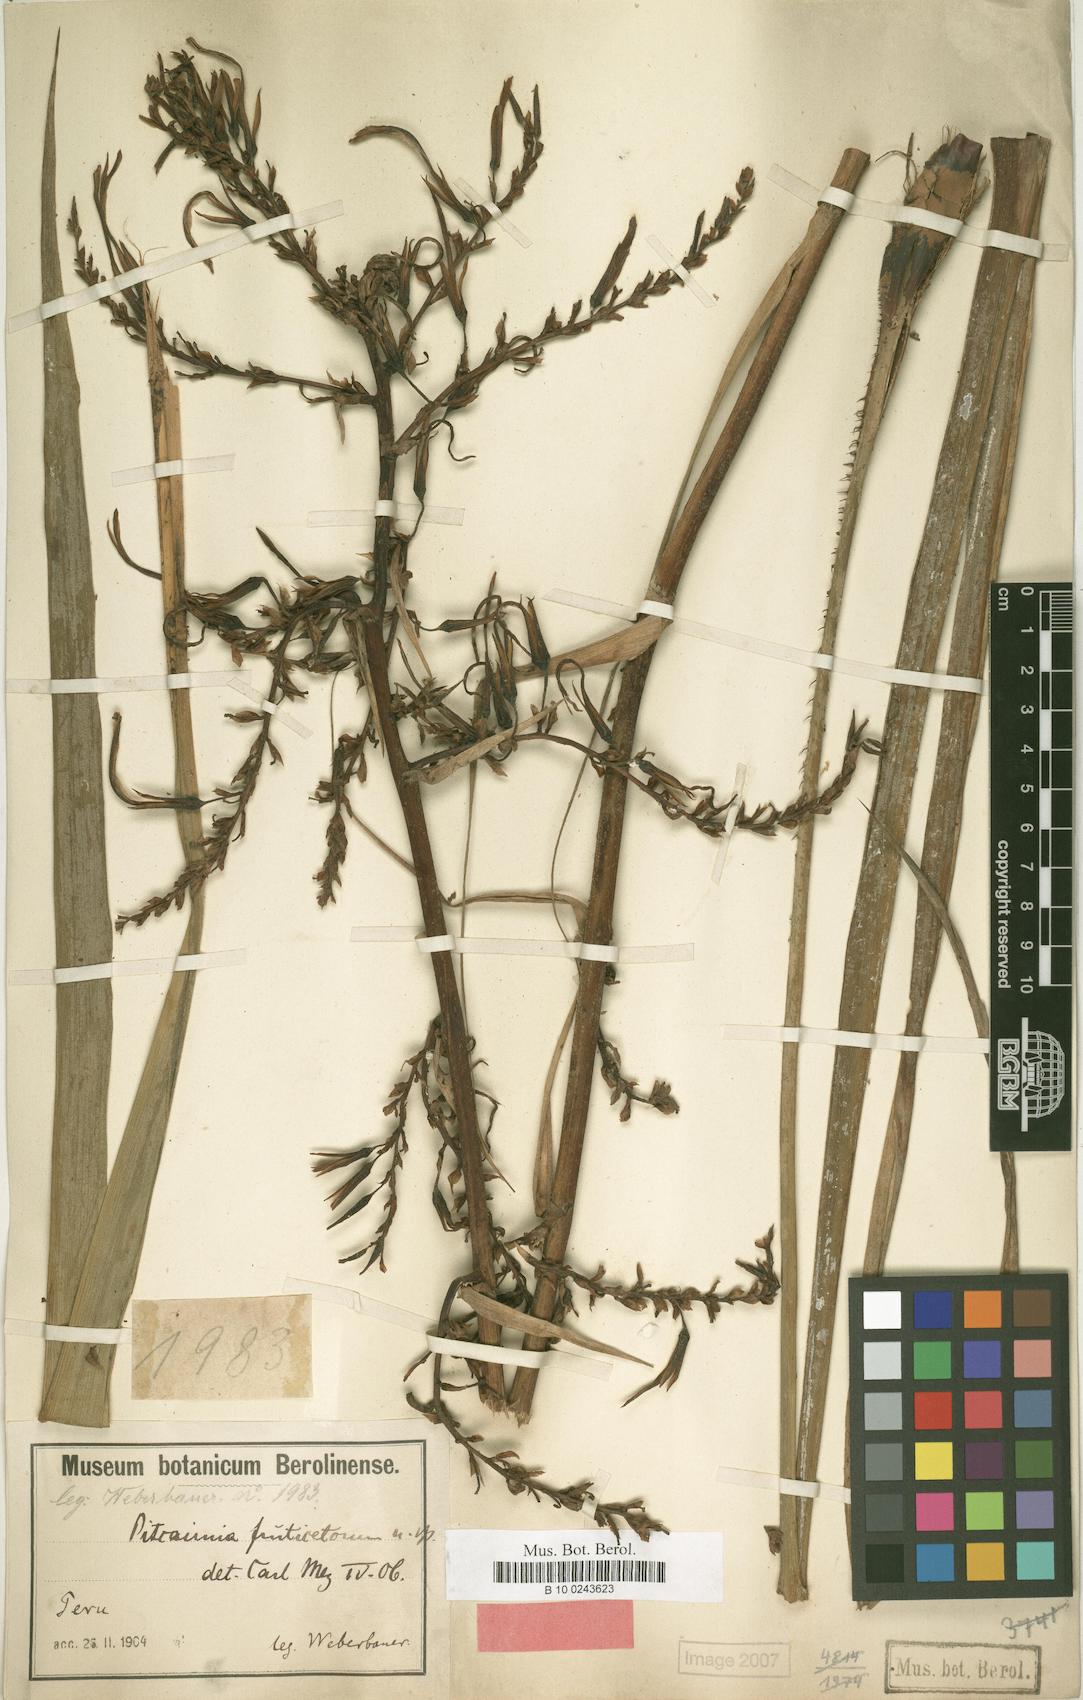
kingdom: Plantae
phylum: Tracheophyta
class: Liliopsida
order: Poales
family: Bromeliaceae
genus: Pitcairnia
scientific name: Pitcairnia paniculata
